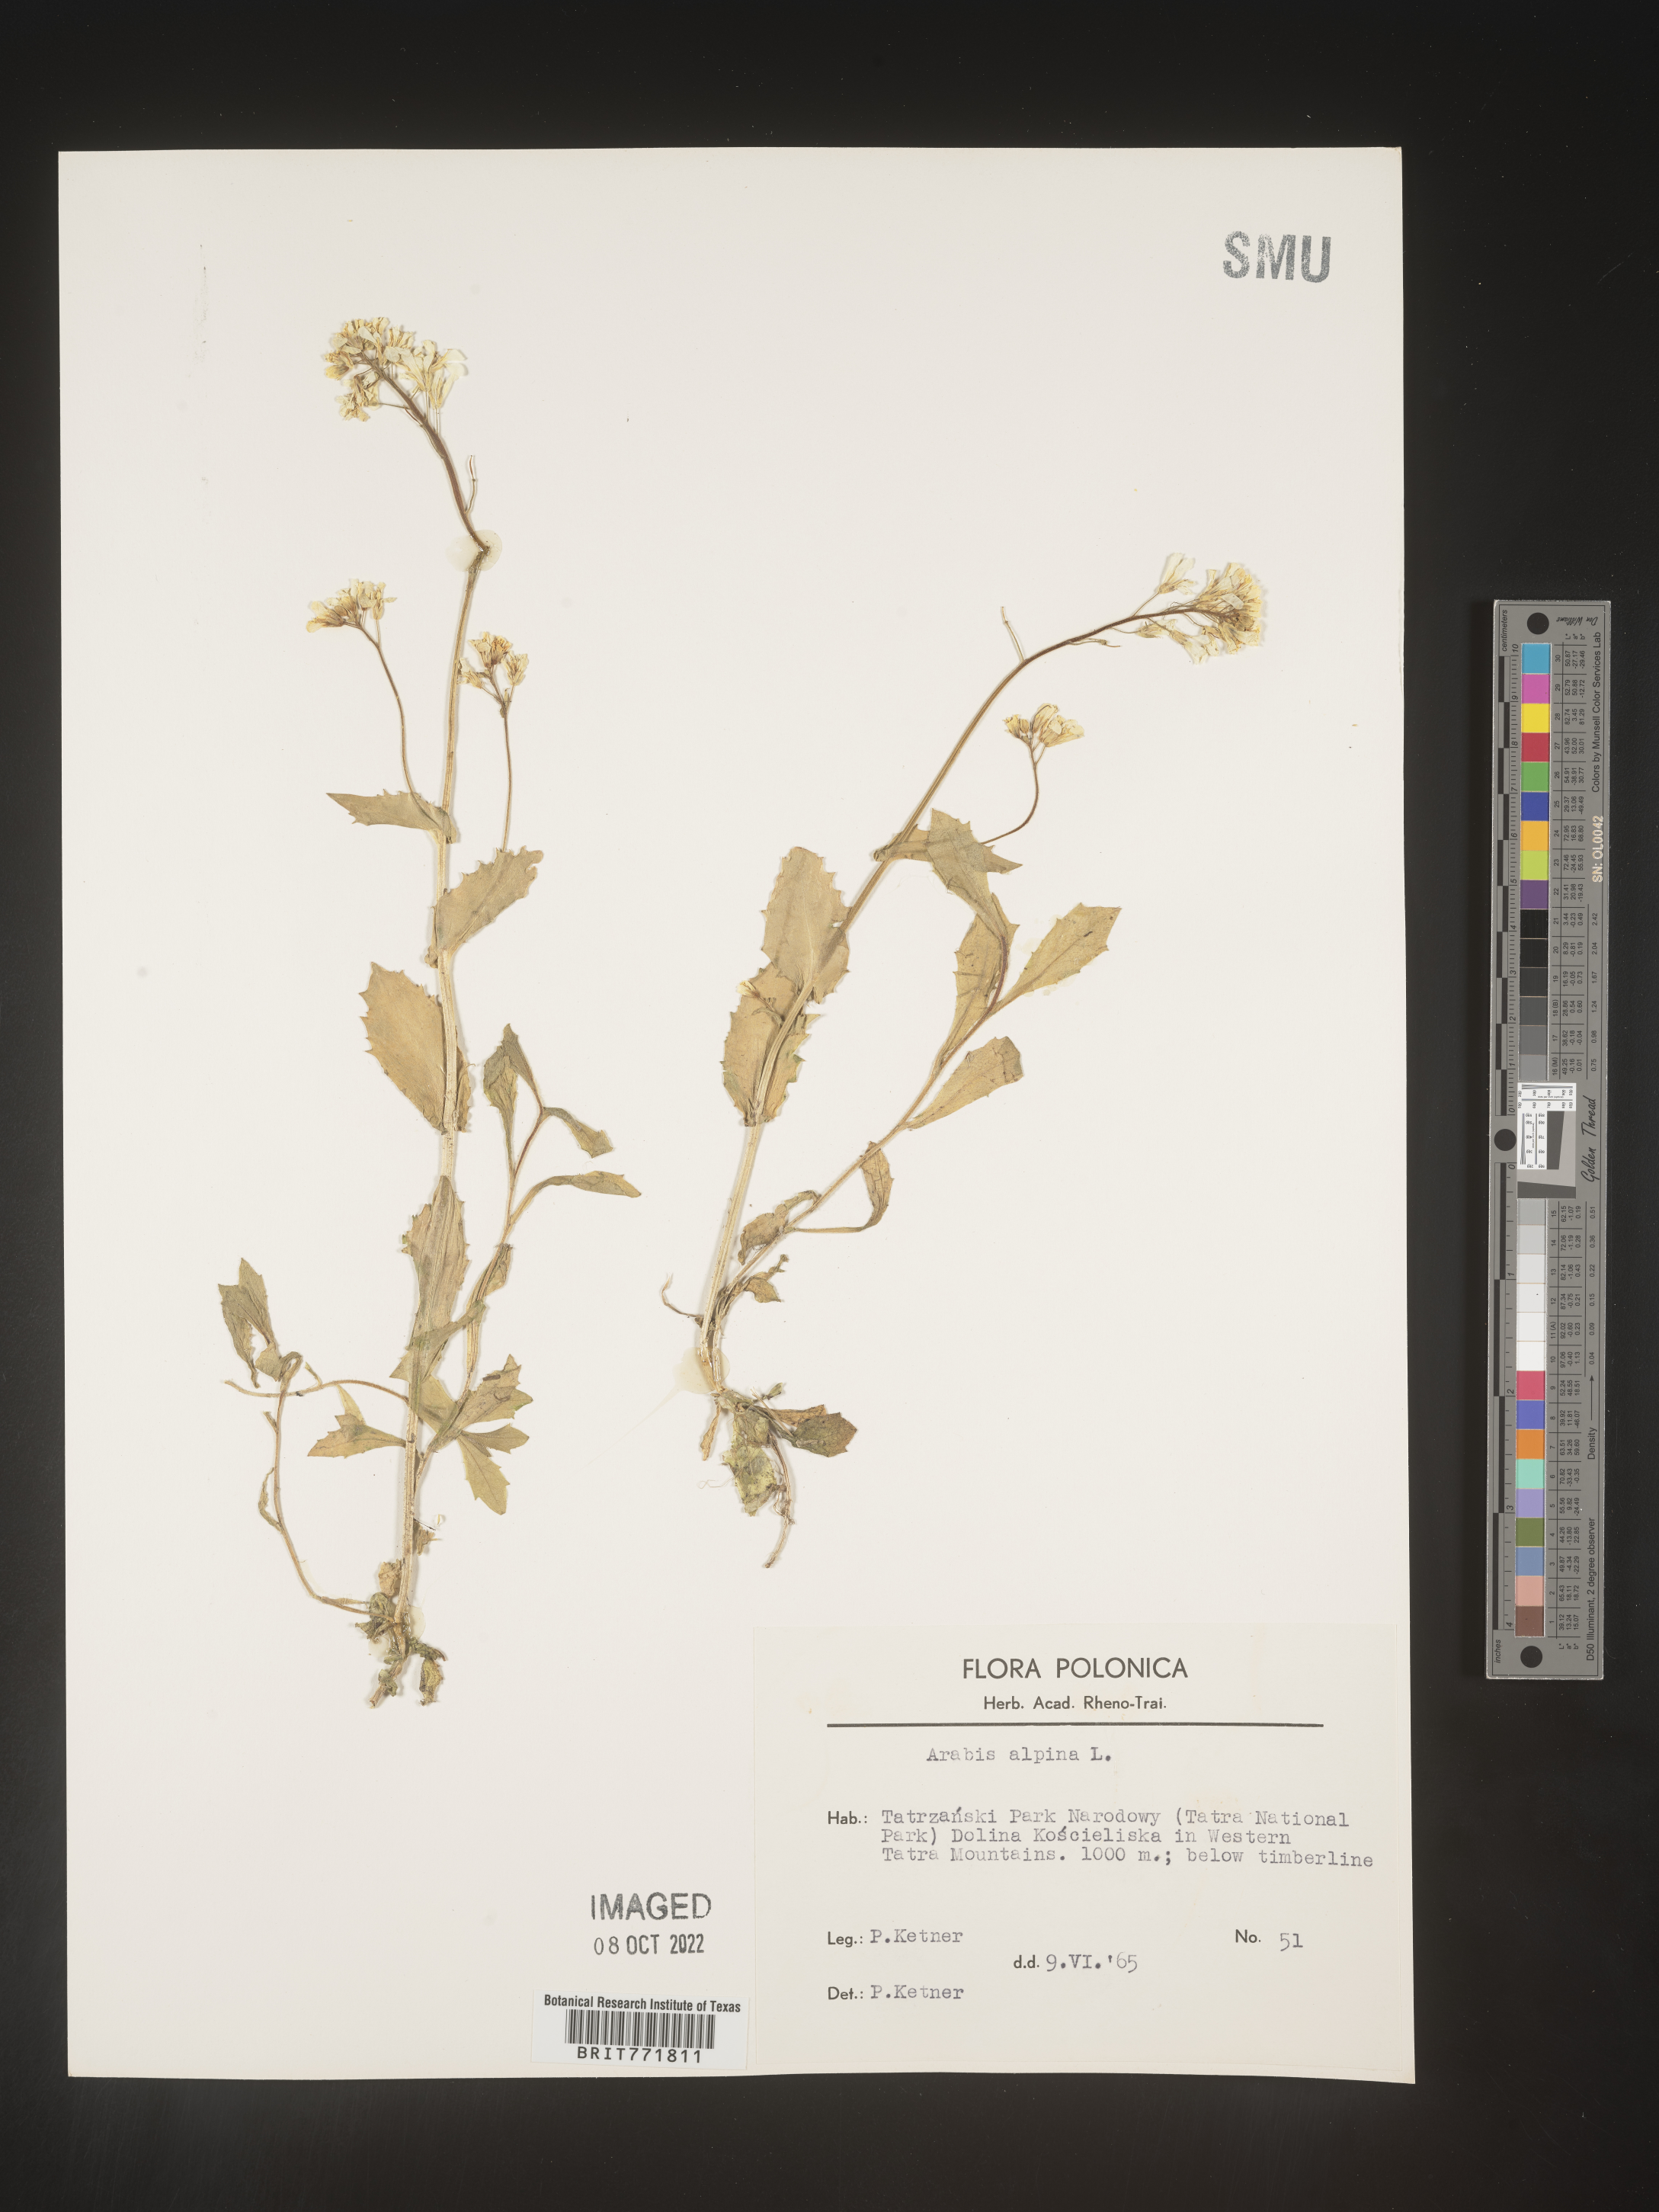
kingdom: Plantae
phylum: Tracheophyta
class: Magnoliopsida
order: Brassicales
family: Brassicaceae
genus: Arabis
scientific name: Arabis
